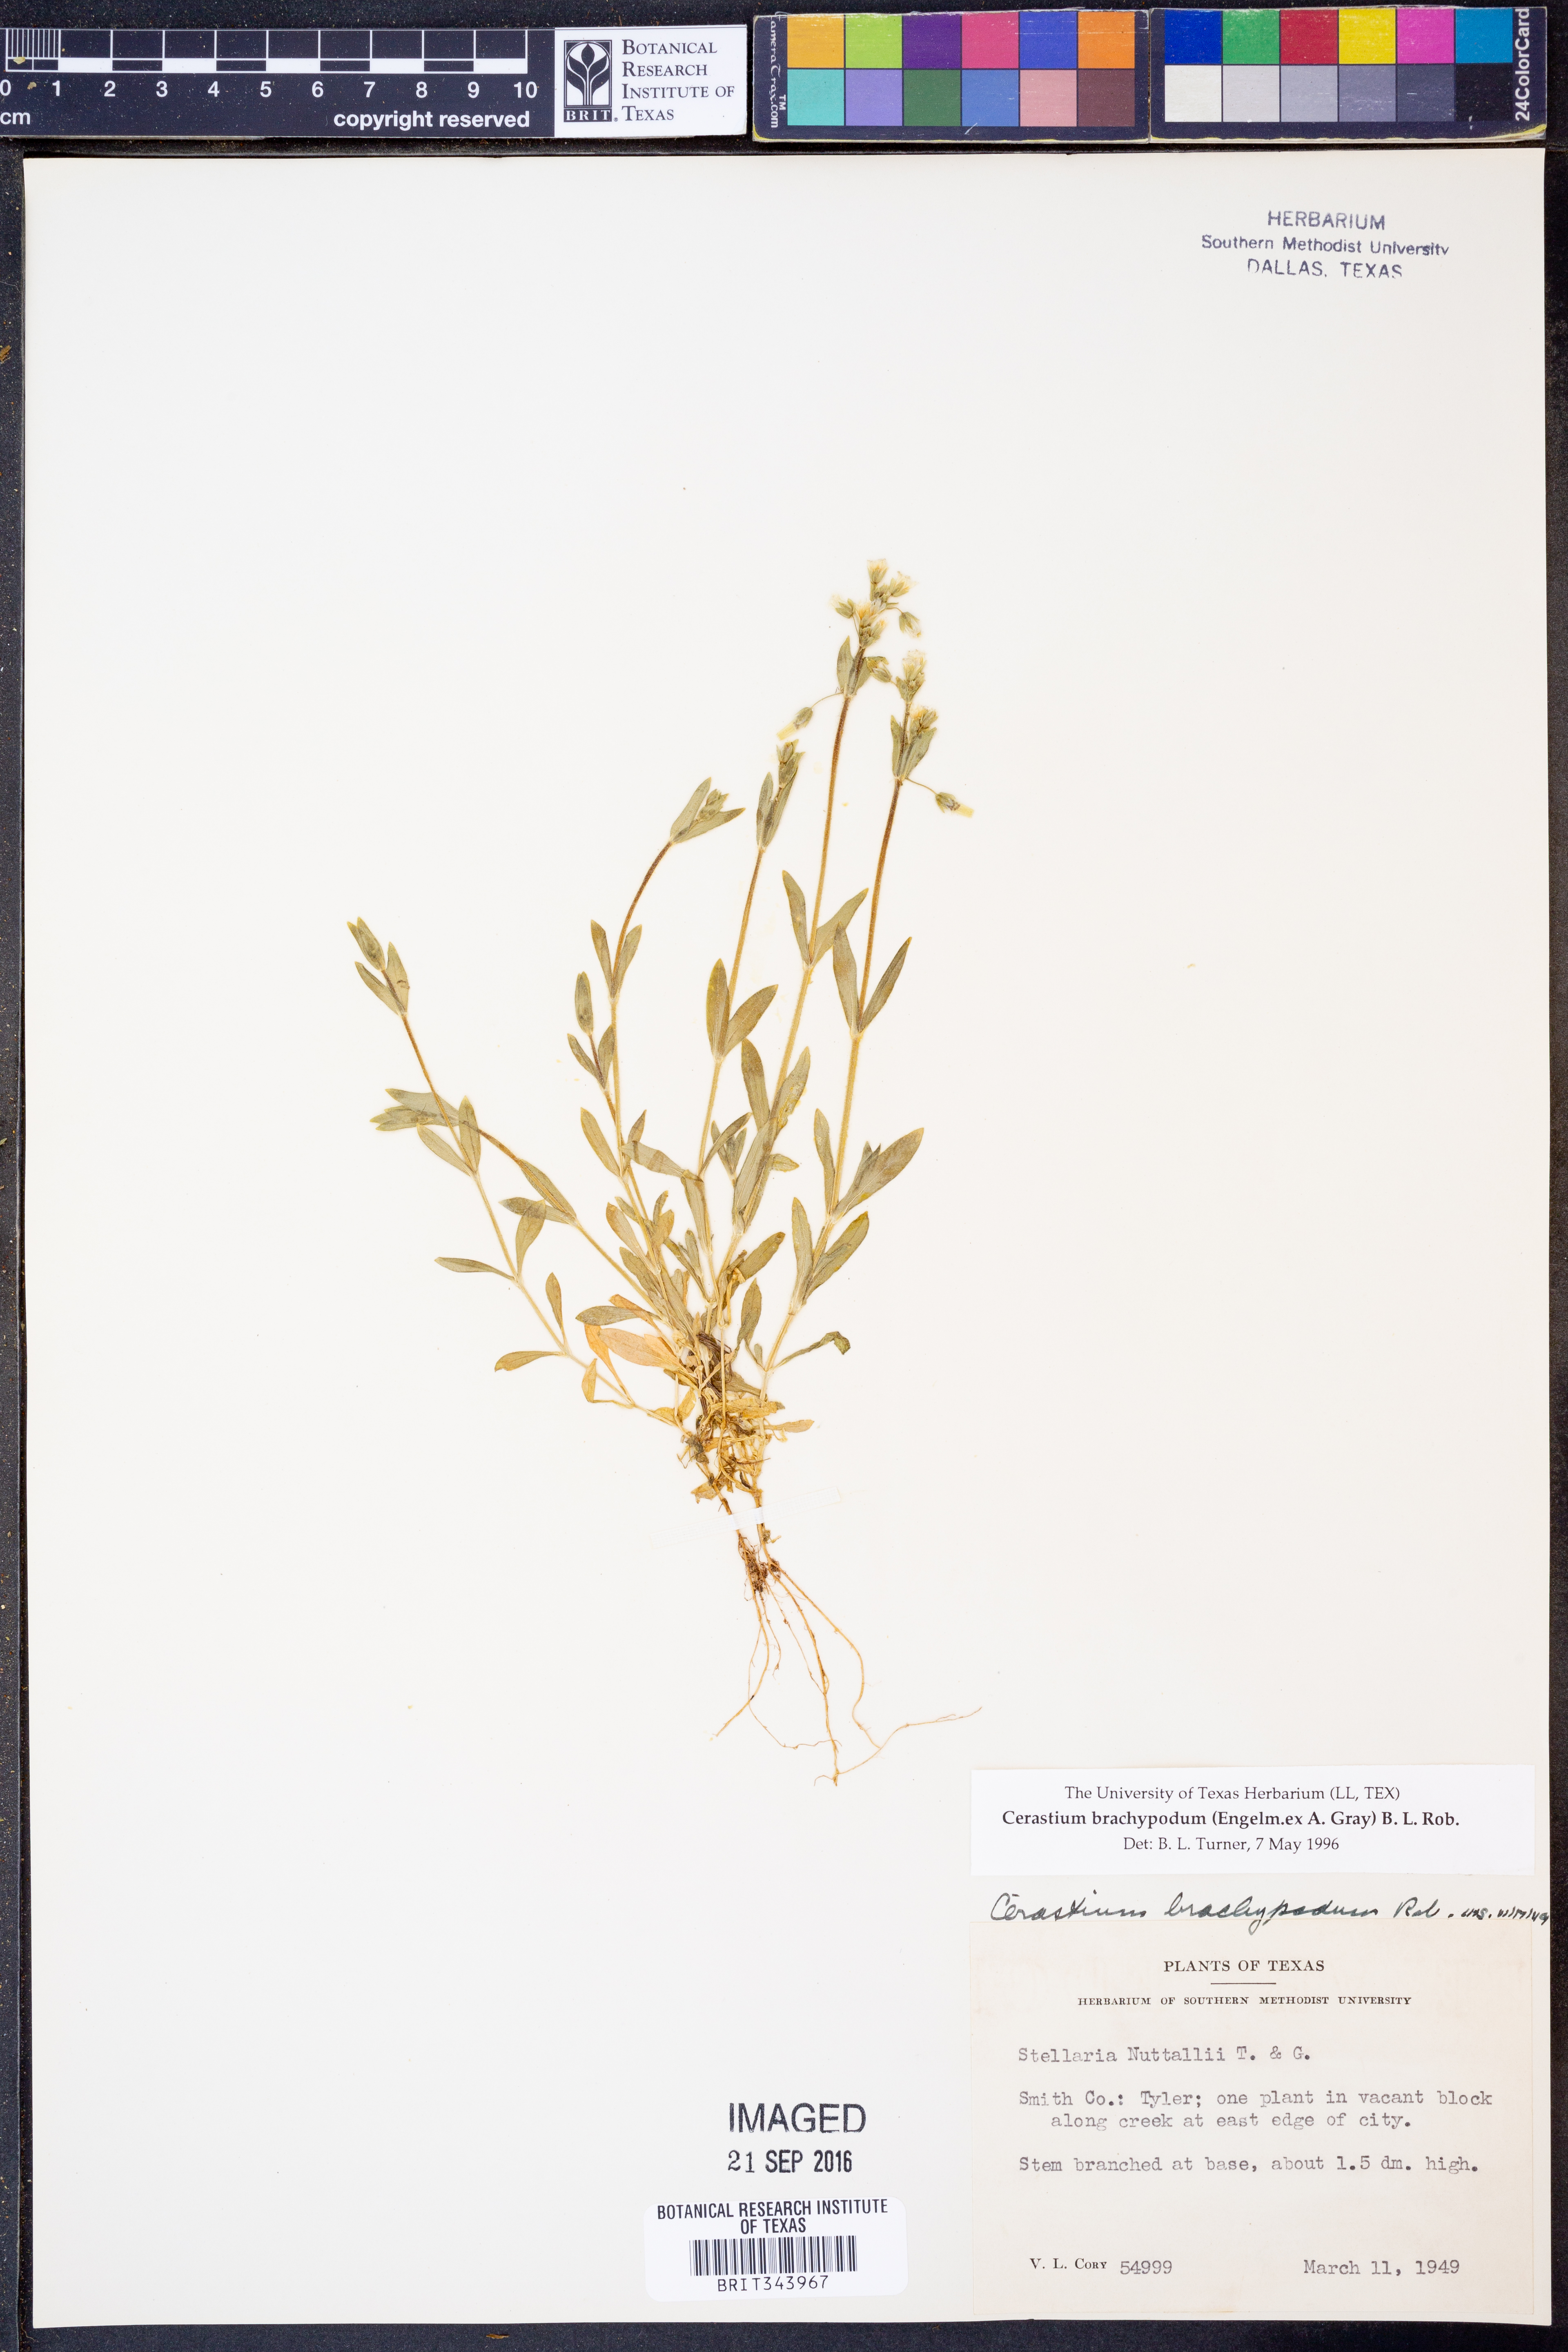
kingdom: Plantae
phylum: Tracheophyta
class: Magnoliopsida
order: Caryophyllales
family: Caryophyllaceae
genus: Cerastium
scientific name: Cerastium brachypodum
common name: Short-pedicelled nodding chickweed
